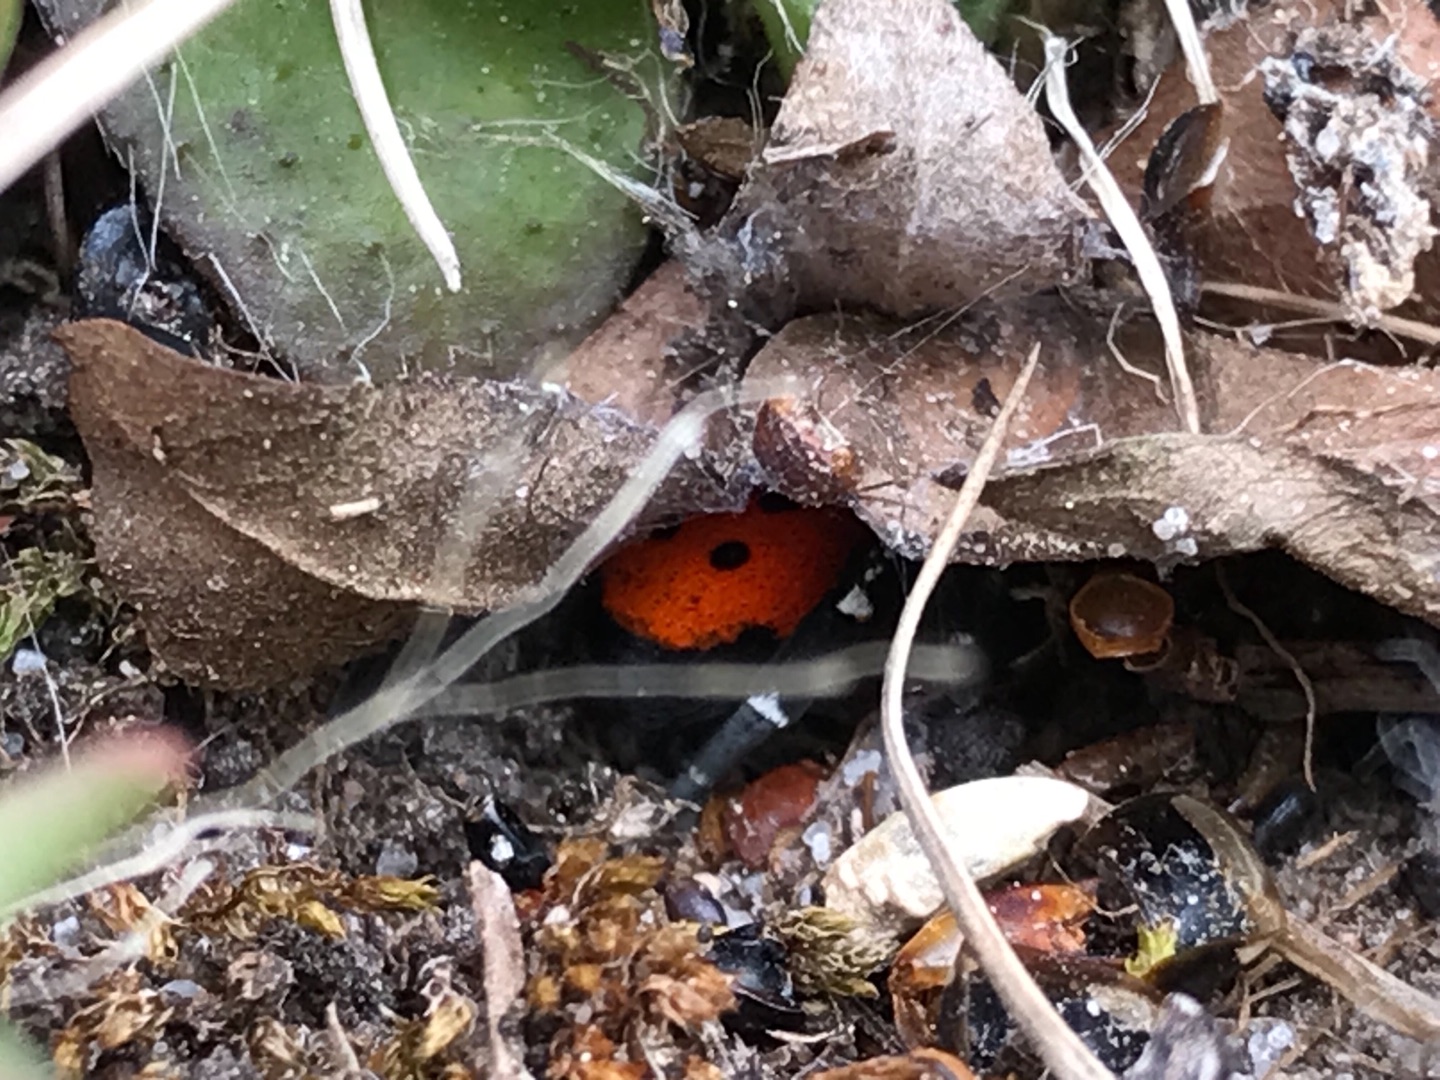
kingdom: Animalia
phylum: Arthropoda
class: Arachnida
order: Araneae
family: Eresidae
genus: Eresus
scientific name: Eresus sandaliatus
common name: Mariehøneedderkop
